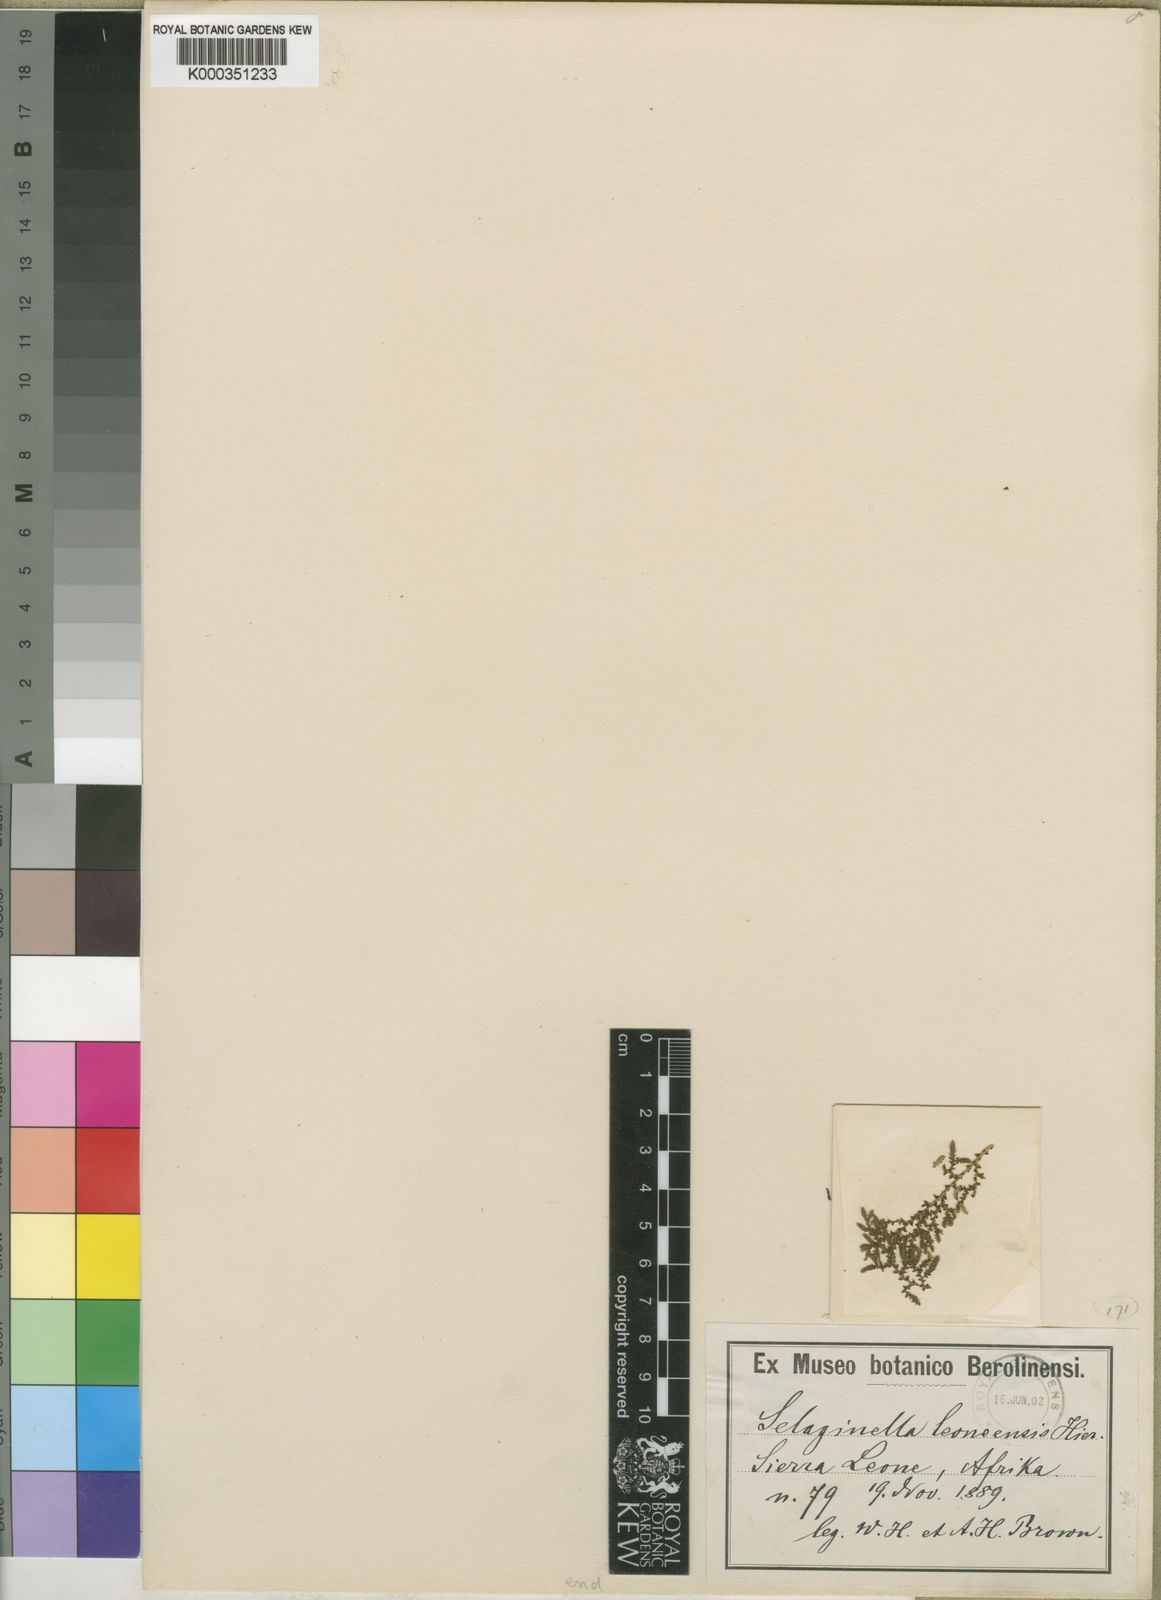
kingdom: Plantae
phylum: Tracheophyta
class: Lycopodiopsida
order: Selaginellales
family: Selaginellaceae
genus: Selaginella
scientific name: Selaginella leoneensis
